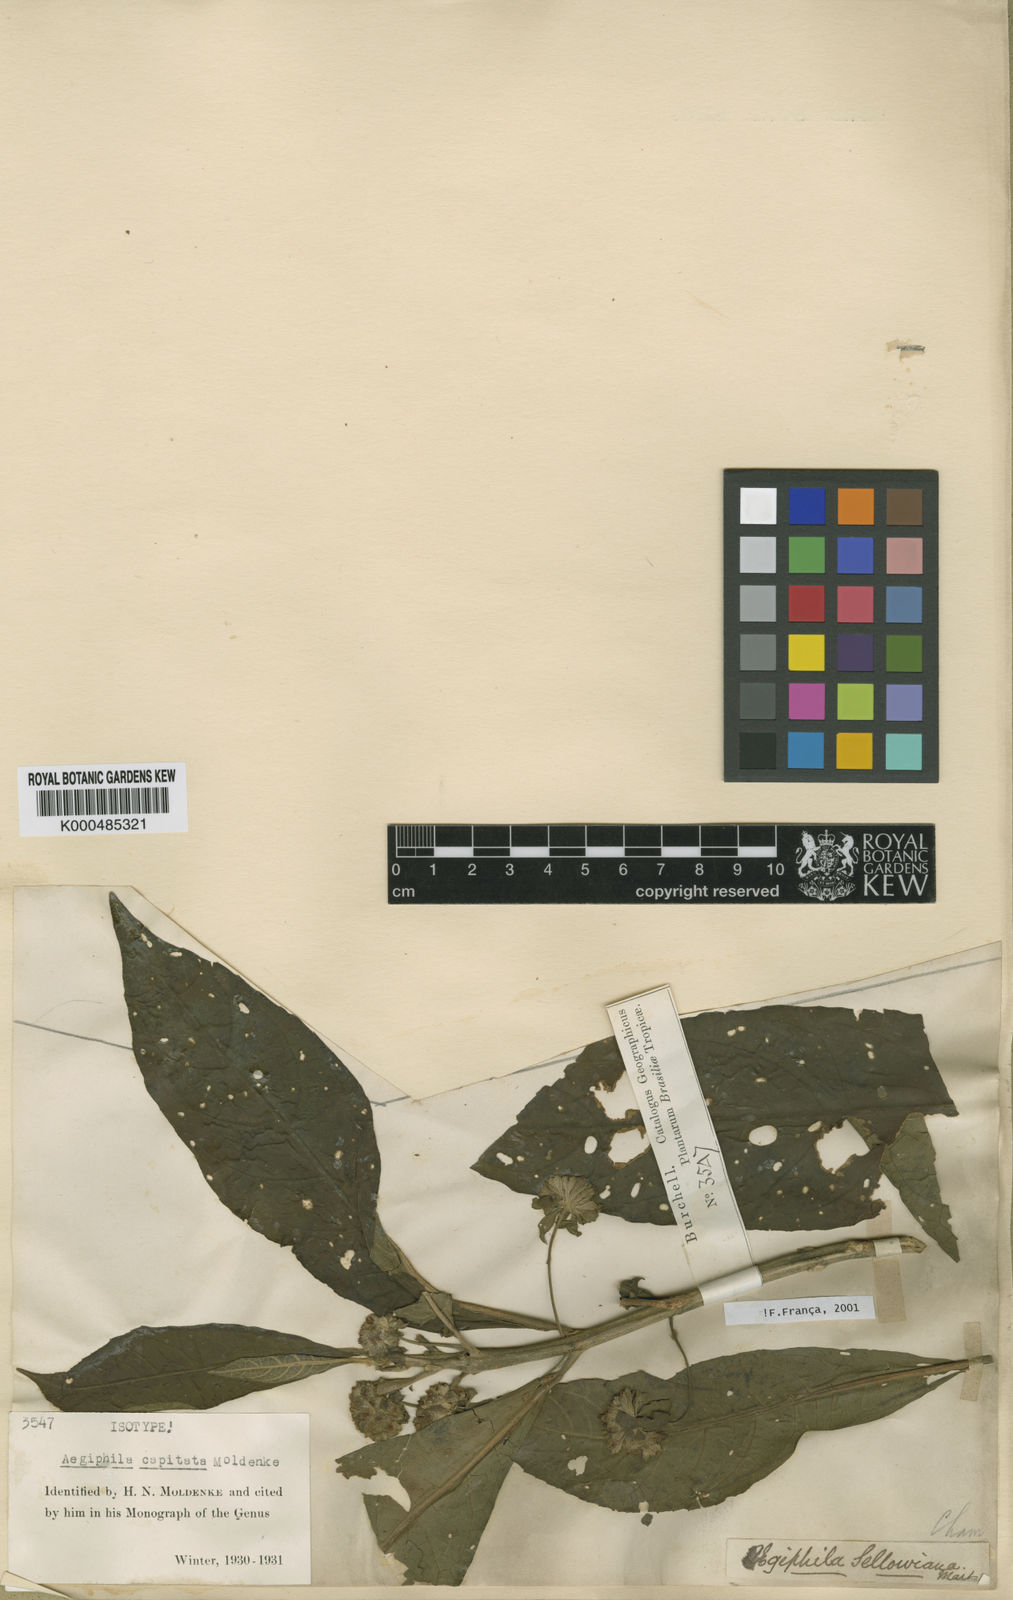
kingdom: Plantae
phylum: Tracheophyta
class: Magnoliopsida
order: Lamiales
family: Lamiaceae
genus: Aegiphila
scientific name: Aegiphila capitata
